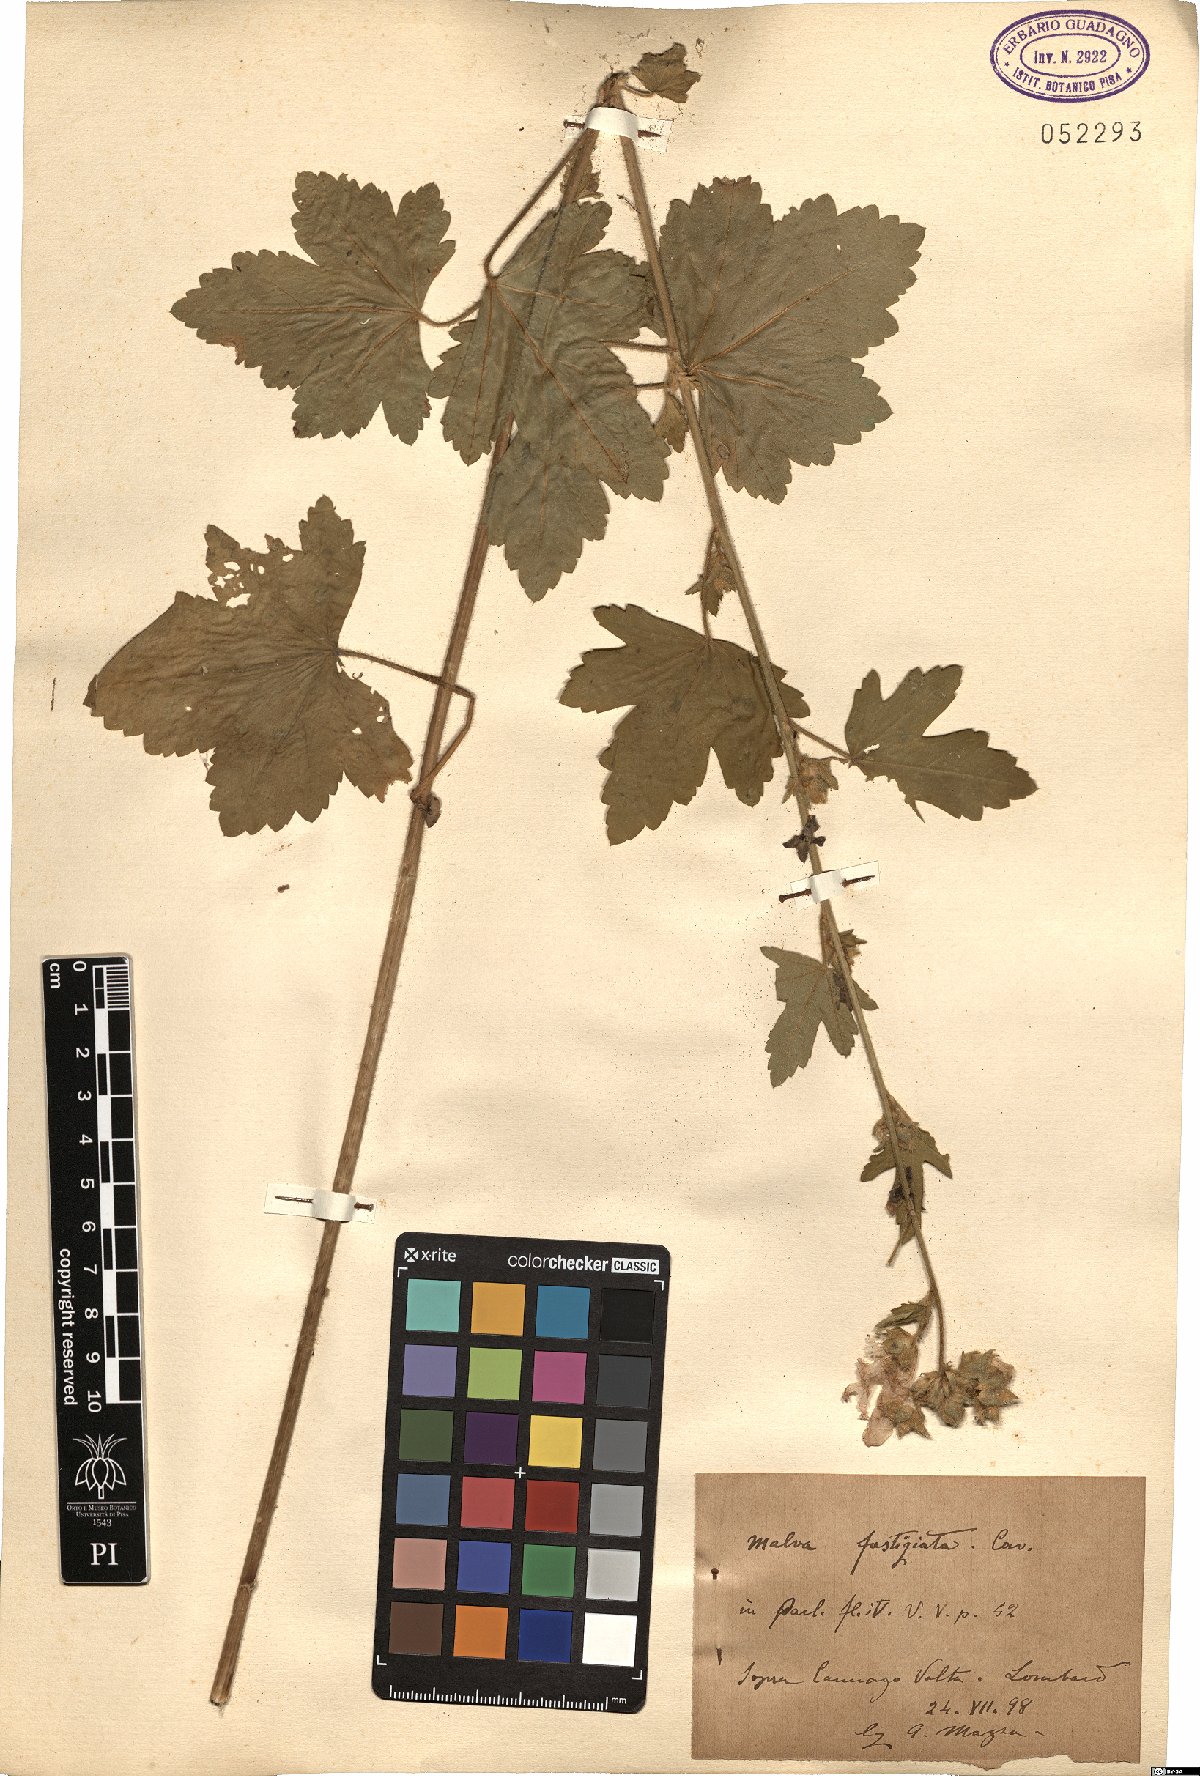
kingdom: Plantae
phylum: Tracheophyta
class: Magnoliopsida
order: Malvales
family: Malvaceae
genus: Malva
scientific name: Malva alcea
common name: Greater musk-mallow
